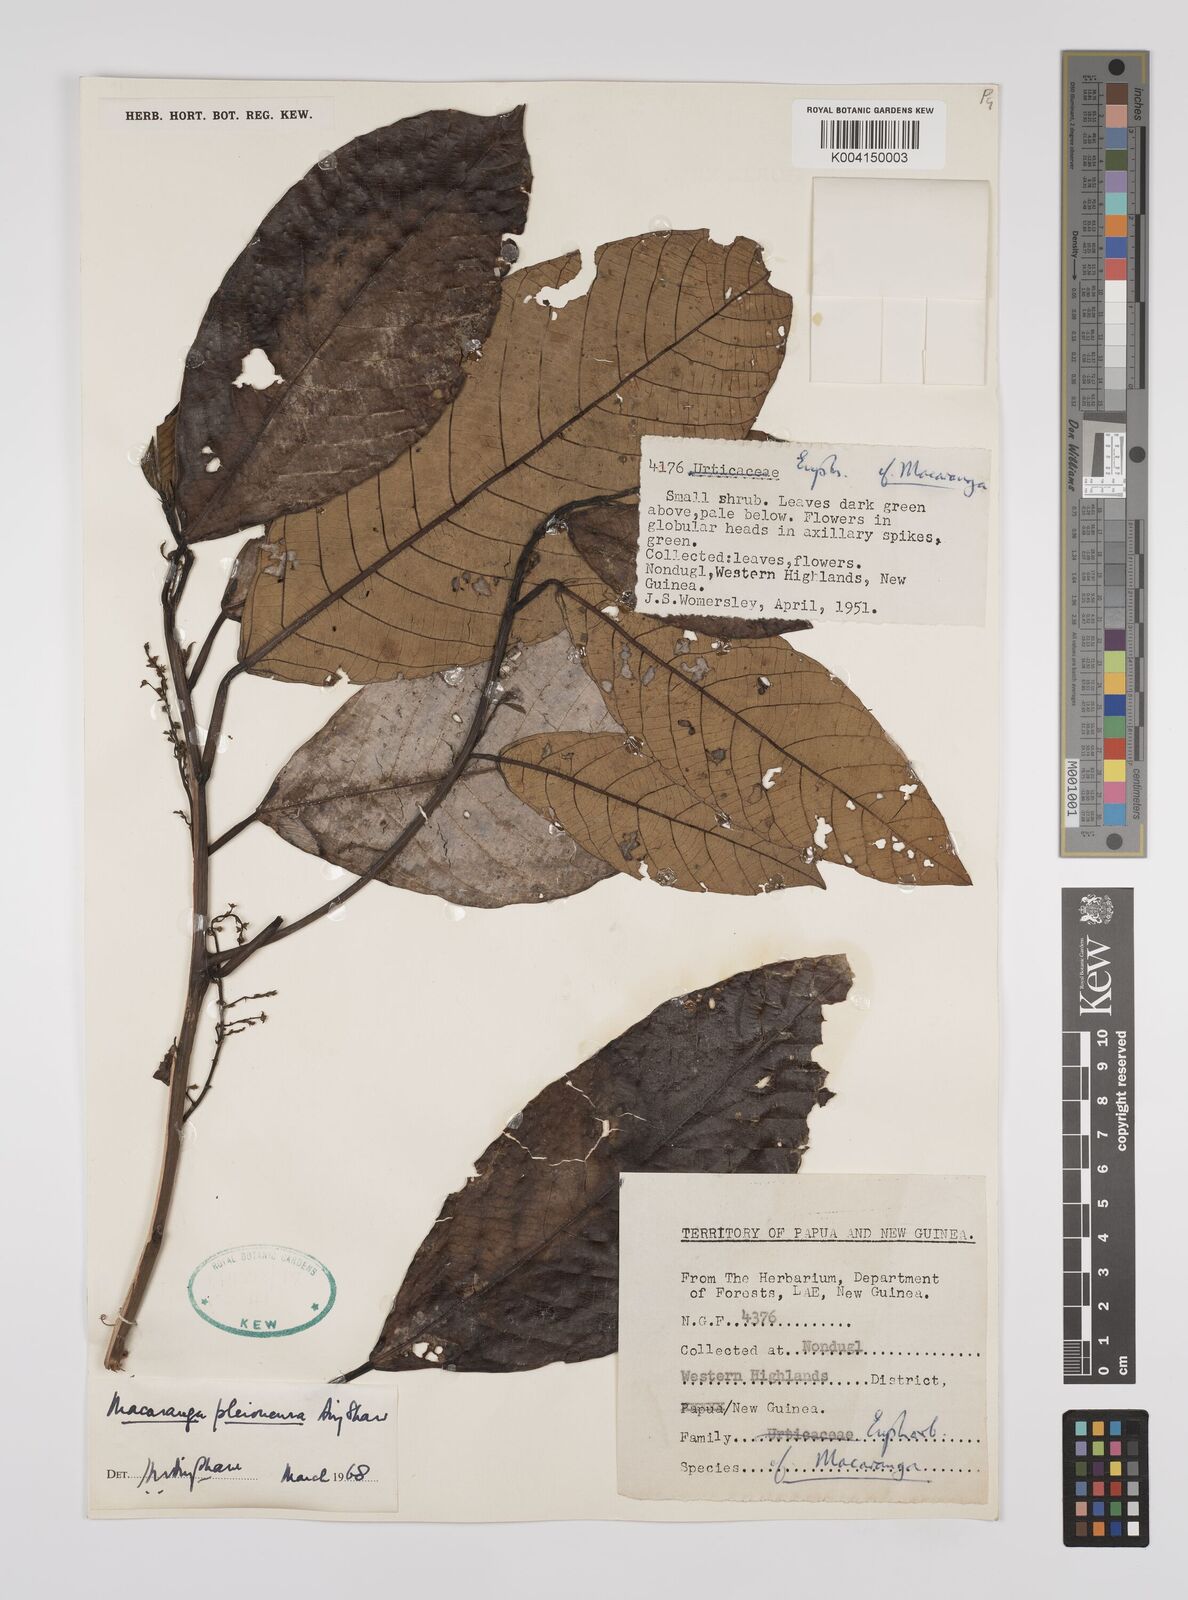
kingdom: Plantae
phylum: Tracheophyta
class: Magnoliopsida
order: Malpighiales
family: Euphorbiaceae
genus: Macaranga
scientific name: Macaranga pleioneura
